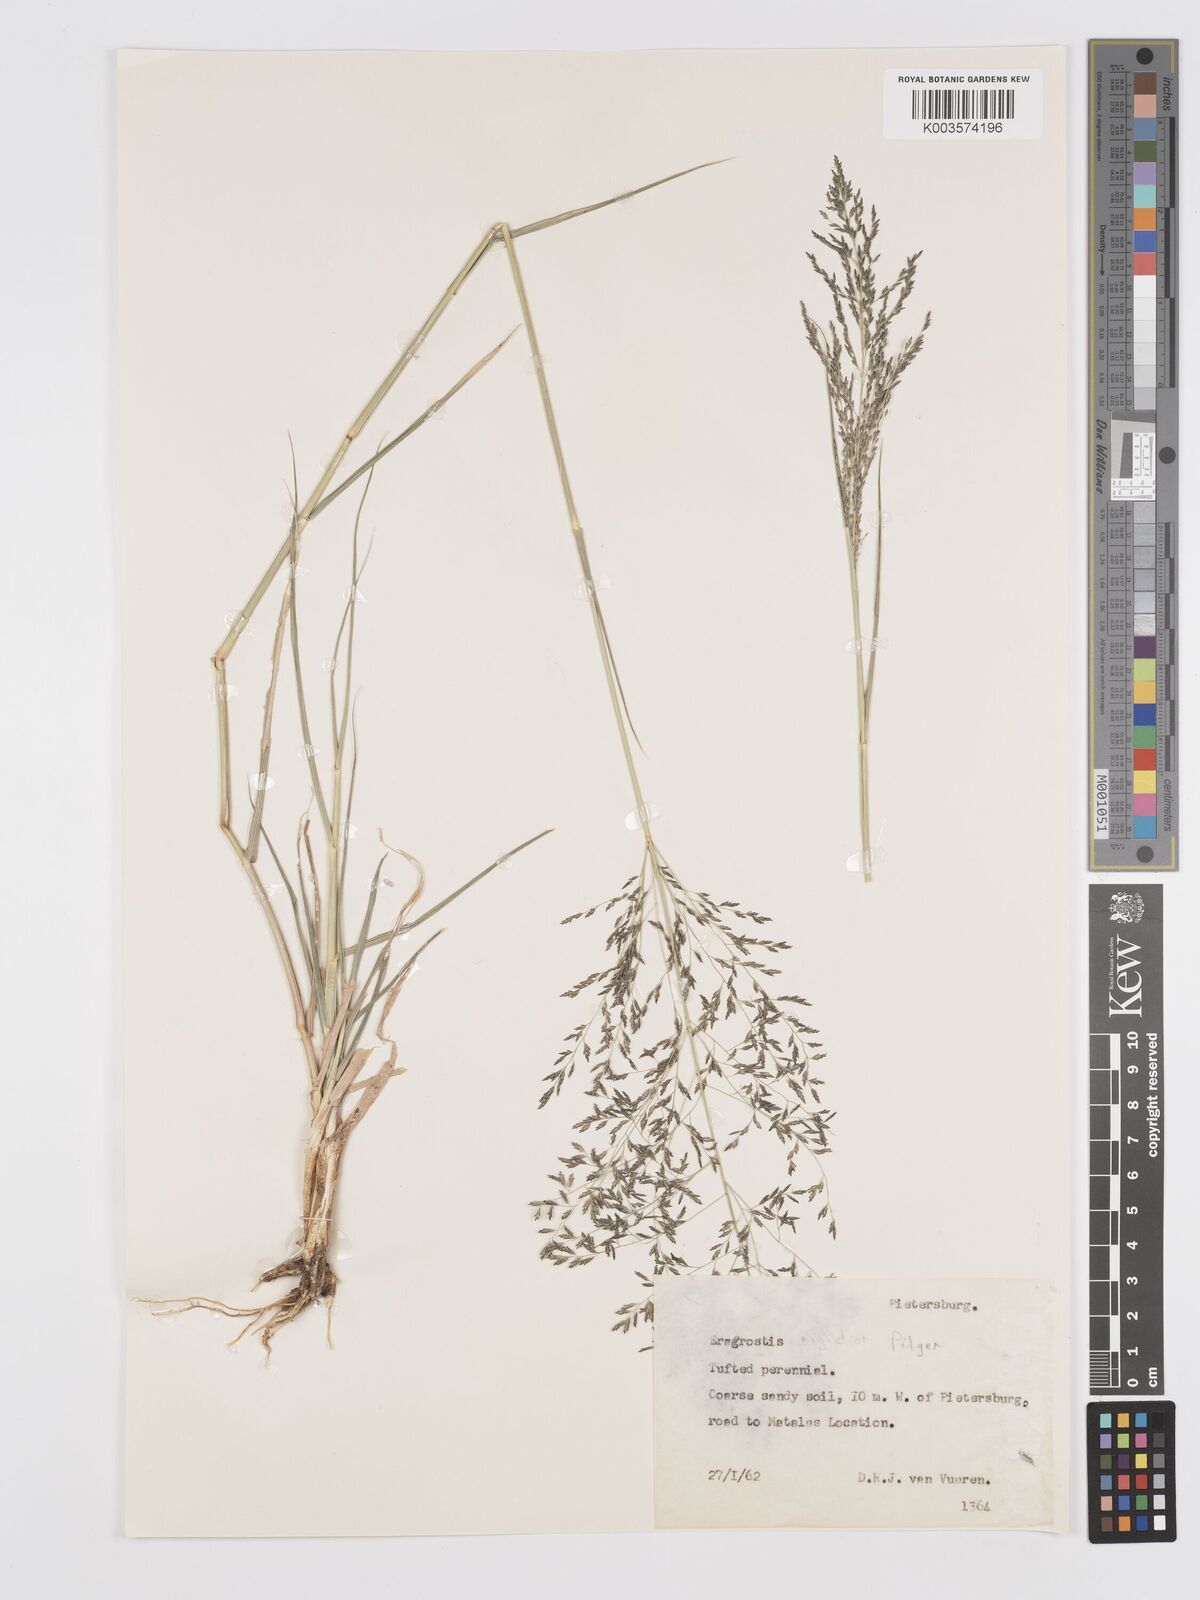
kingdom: Plantae
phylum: Tracheophyta
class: Liliopsida
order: Poales
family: Poaceae
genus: Eragrostis
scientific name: Eragrostis cylindriflora
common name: Cylinderflower lovegrass
